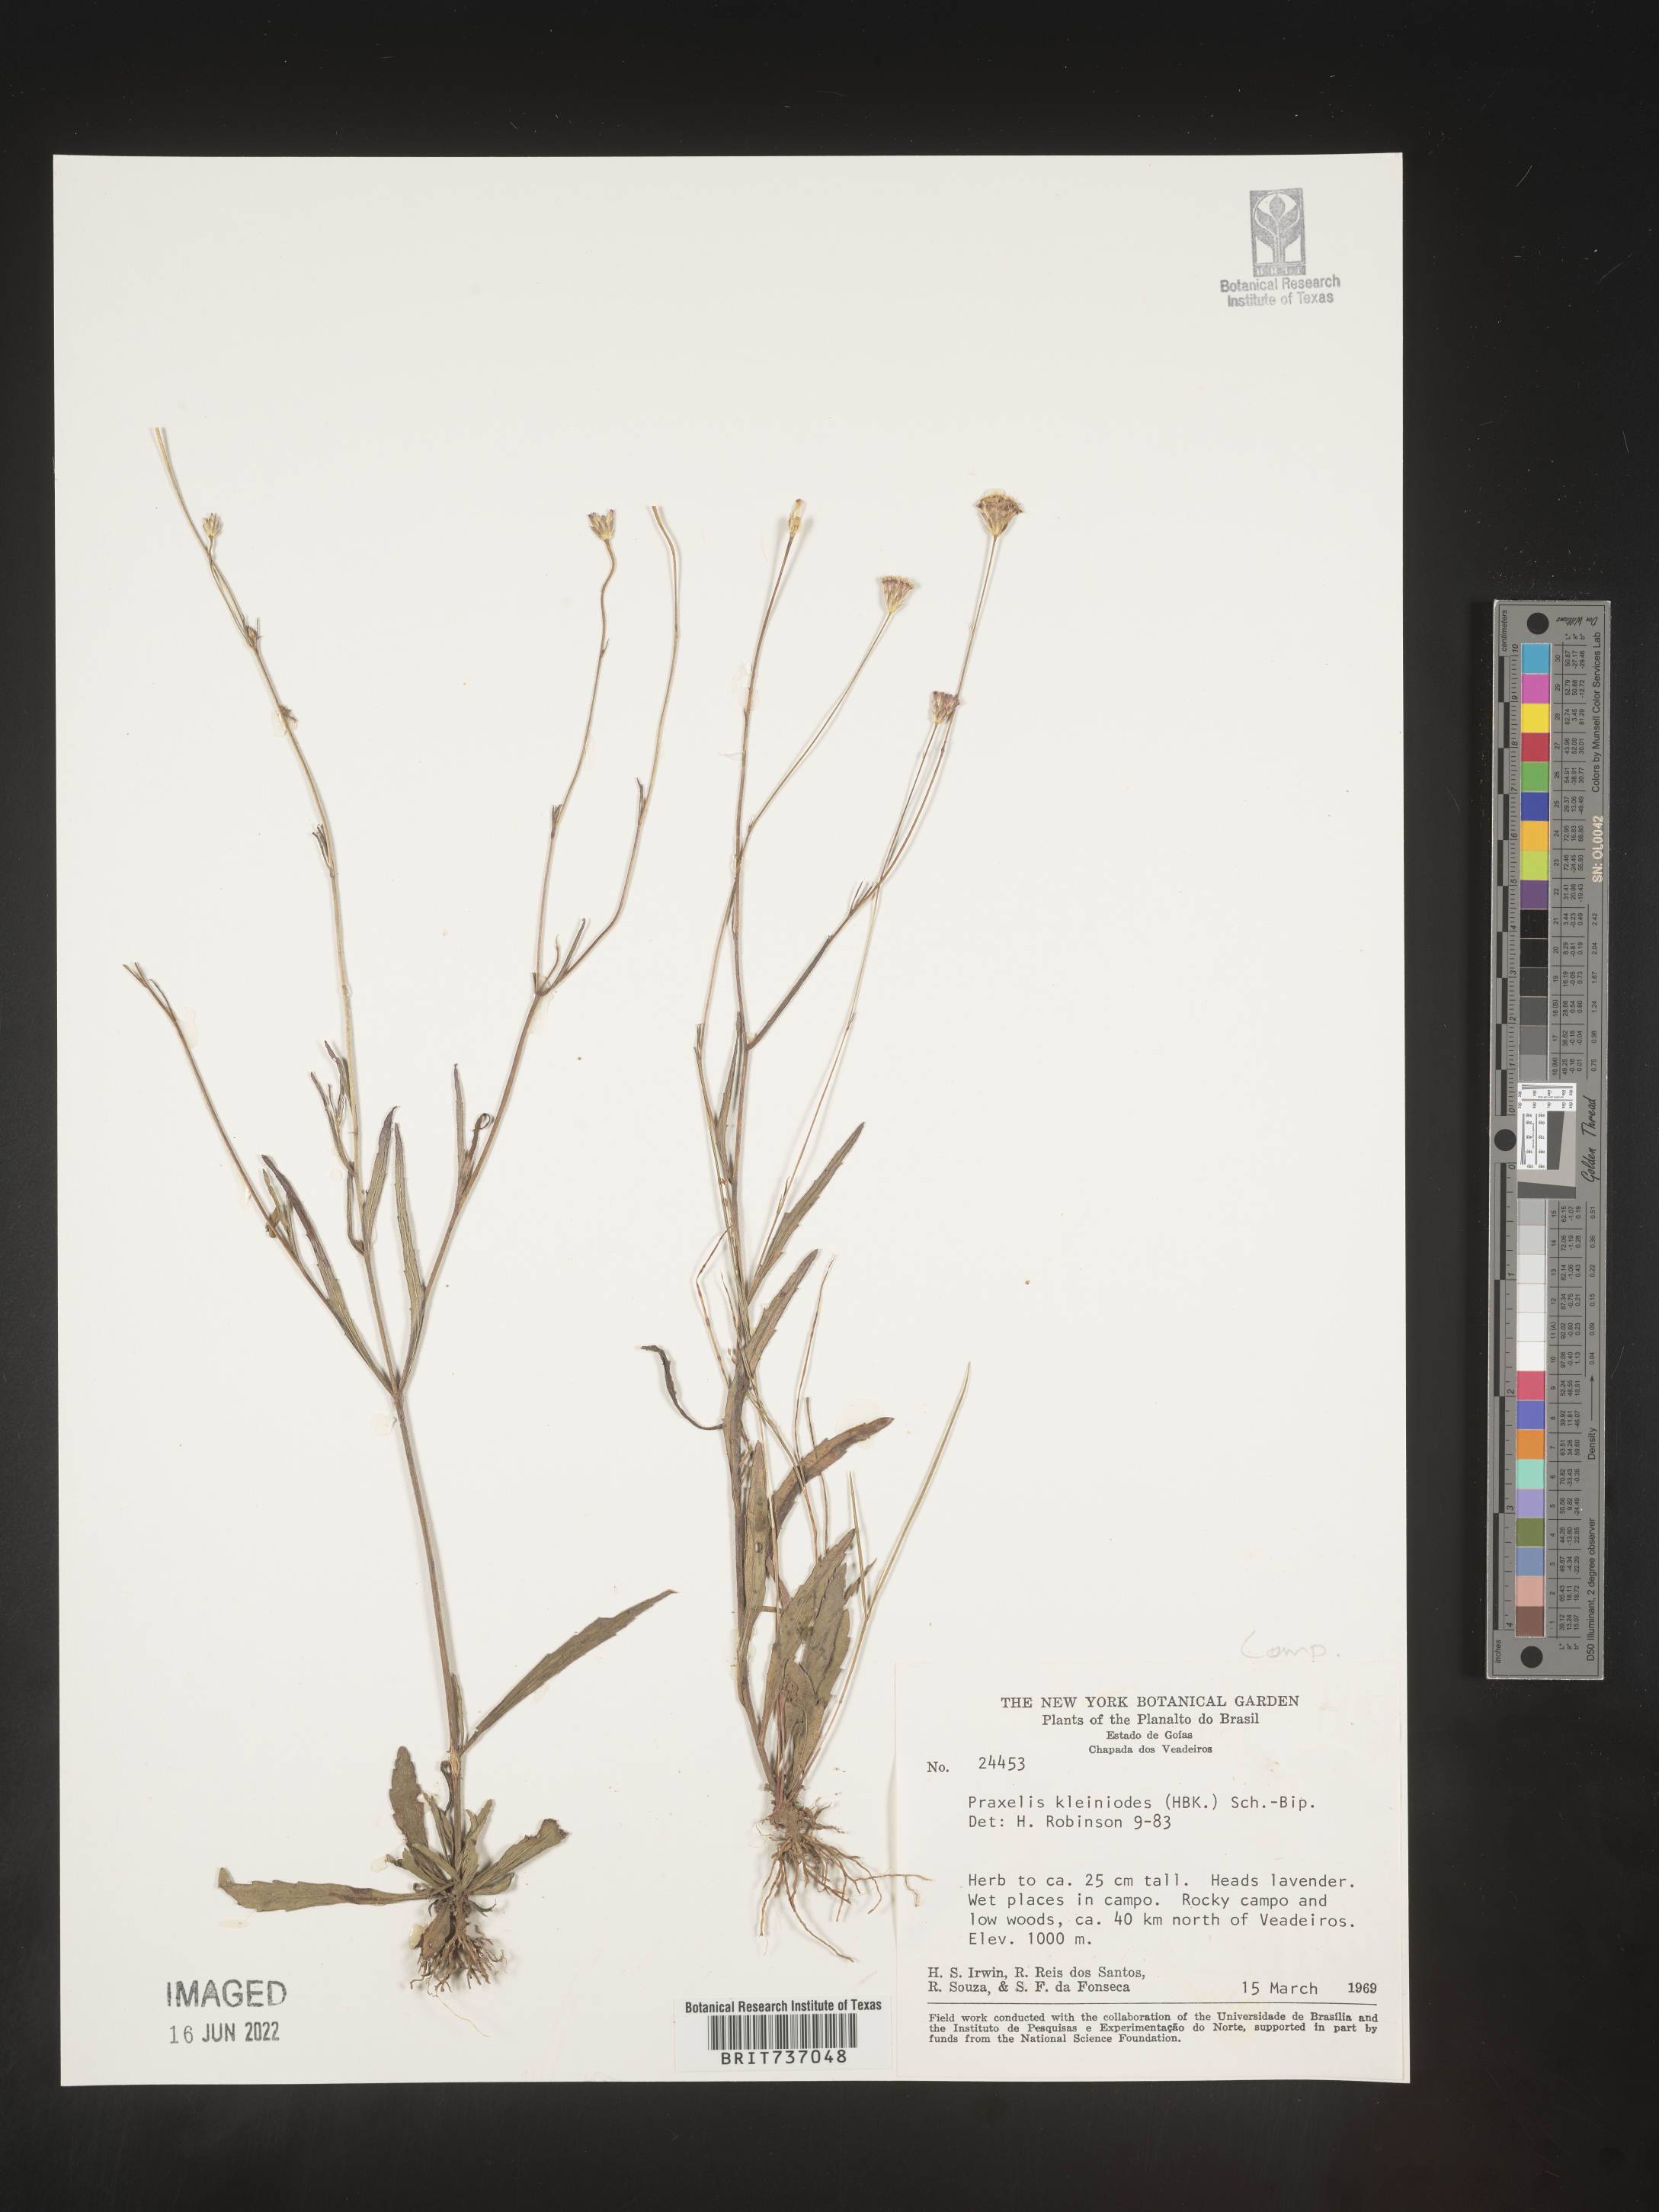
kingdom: Plantae
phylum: Tracheophyta
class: Magnoliopsida
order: Asterales
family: Asteraceae
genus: Praxelis
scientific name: Praxelis
